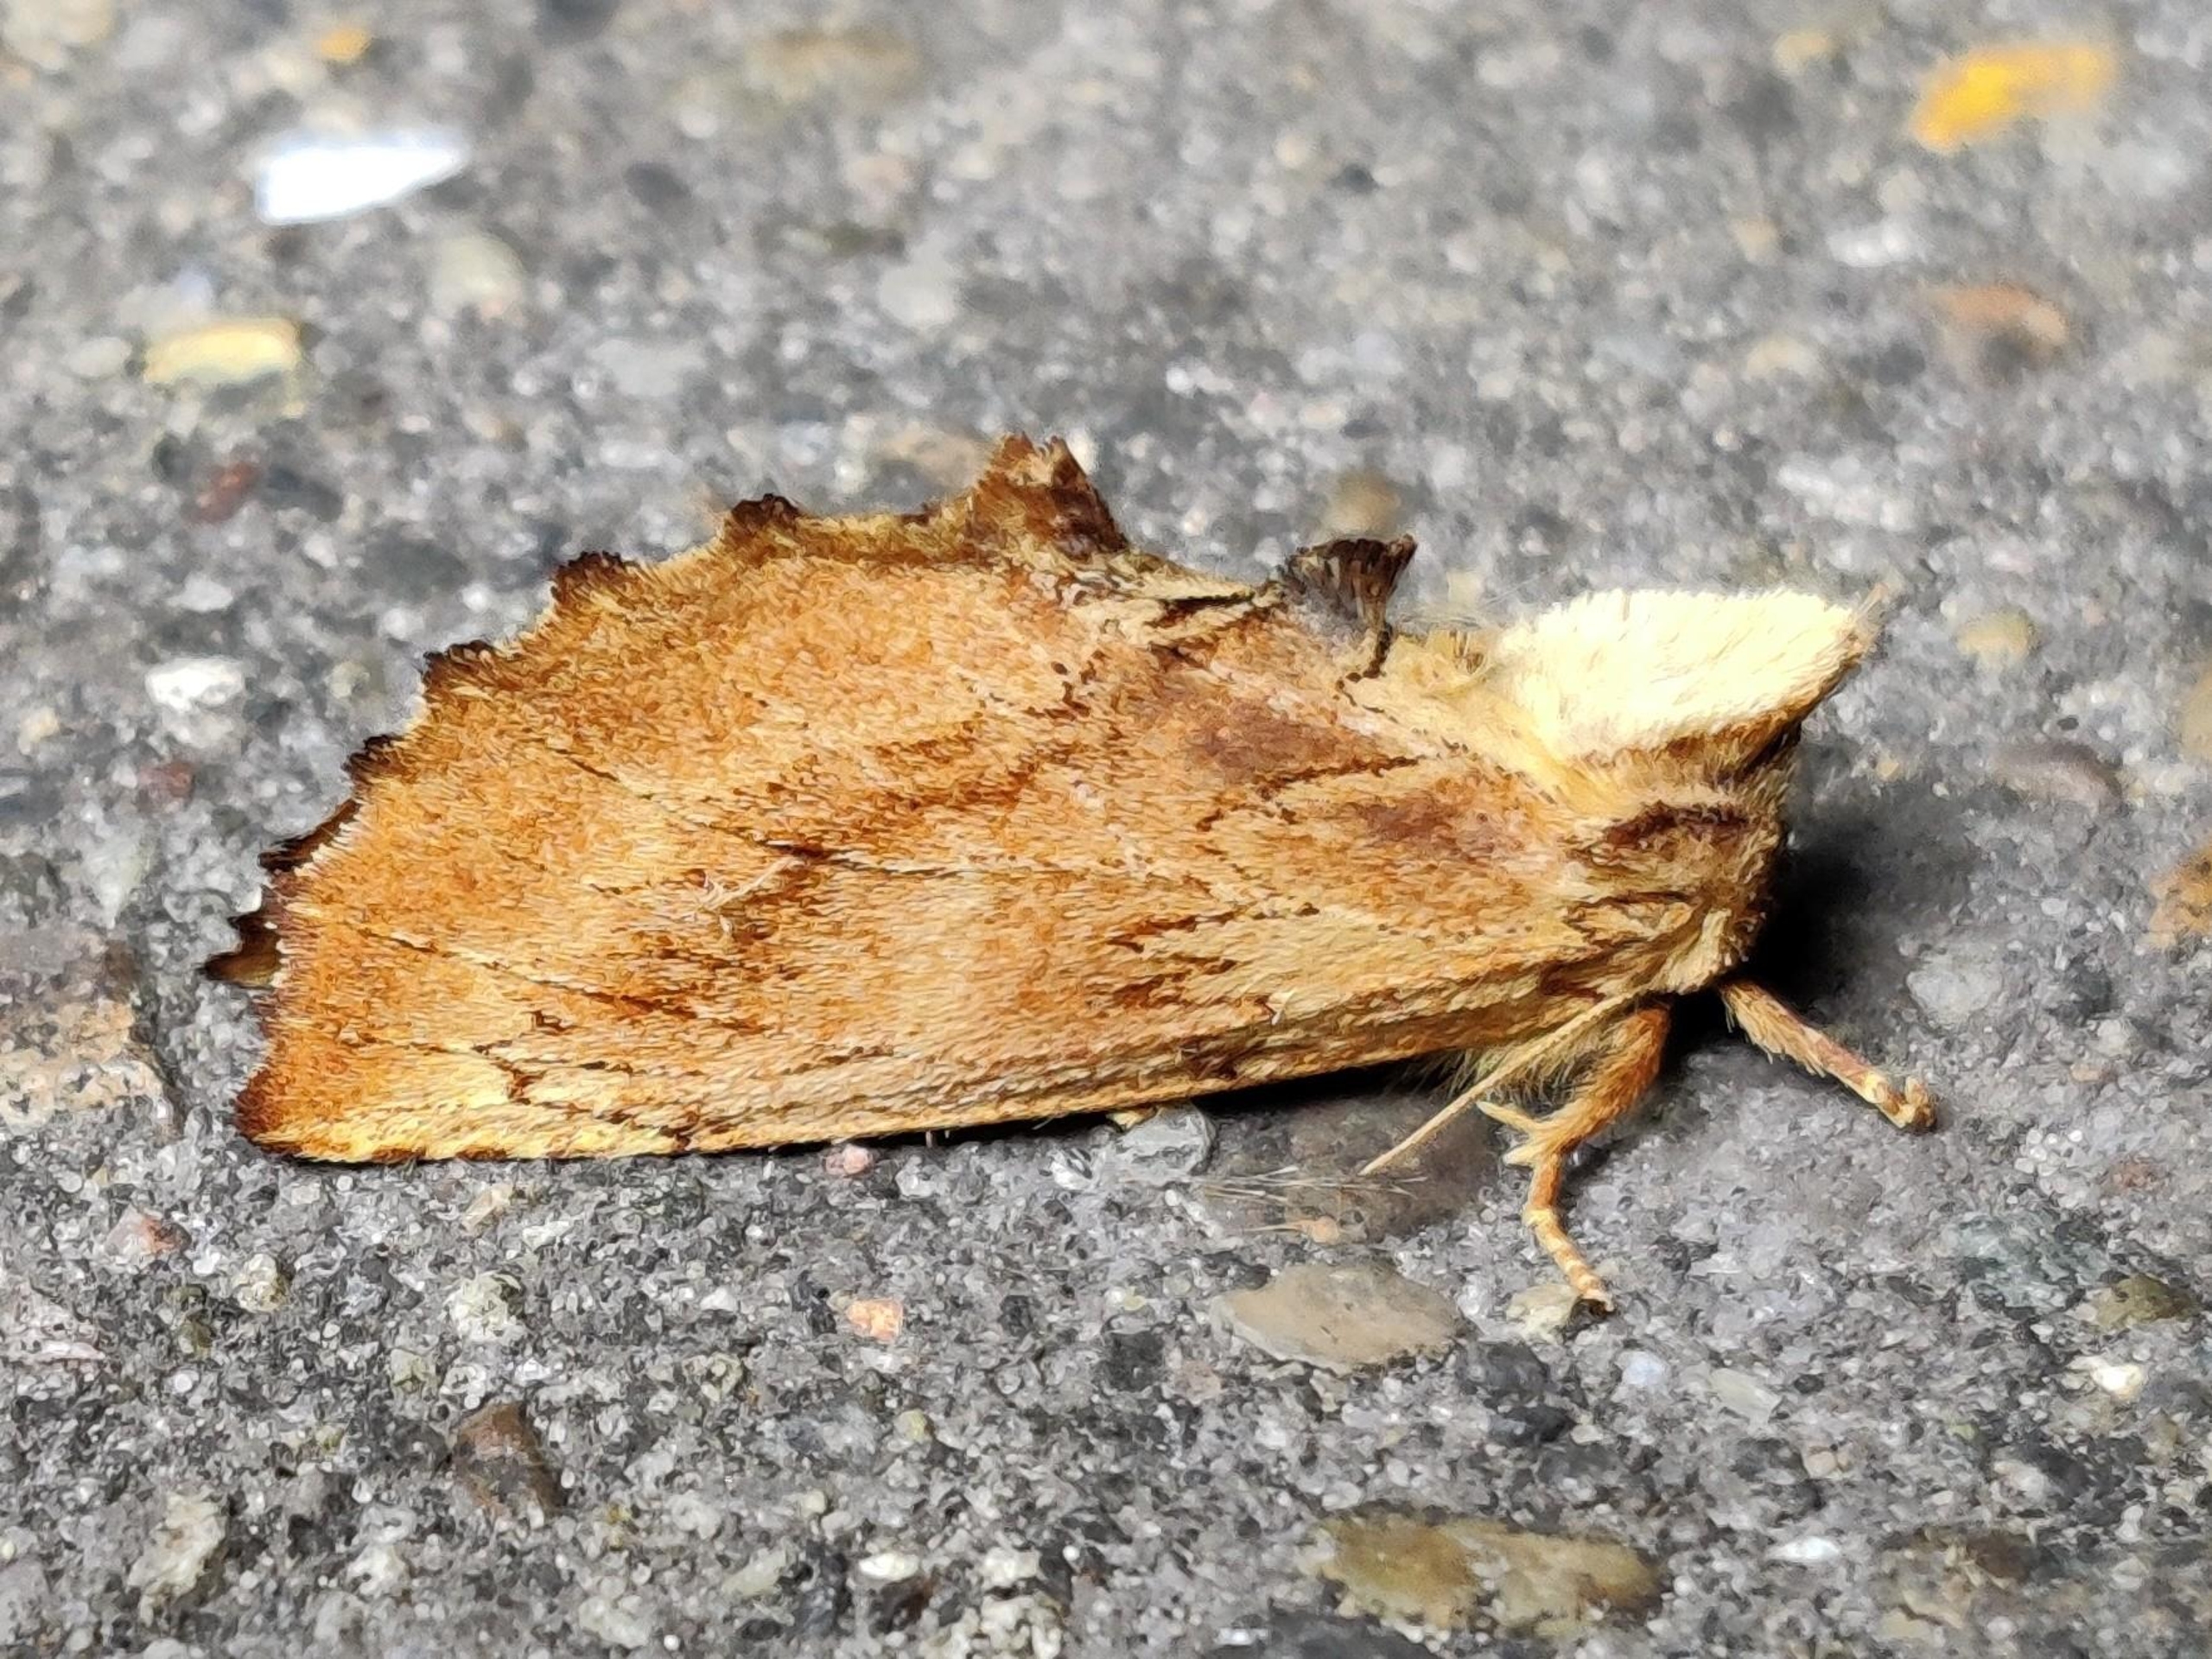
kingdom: Animalia
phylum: Arthropoda
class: Insecta
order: Lepidoptera
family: Notodontidae
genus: Ptilodon
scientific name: Ptilodon capucina
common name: Kamelspinder
